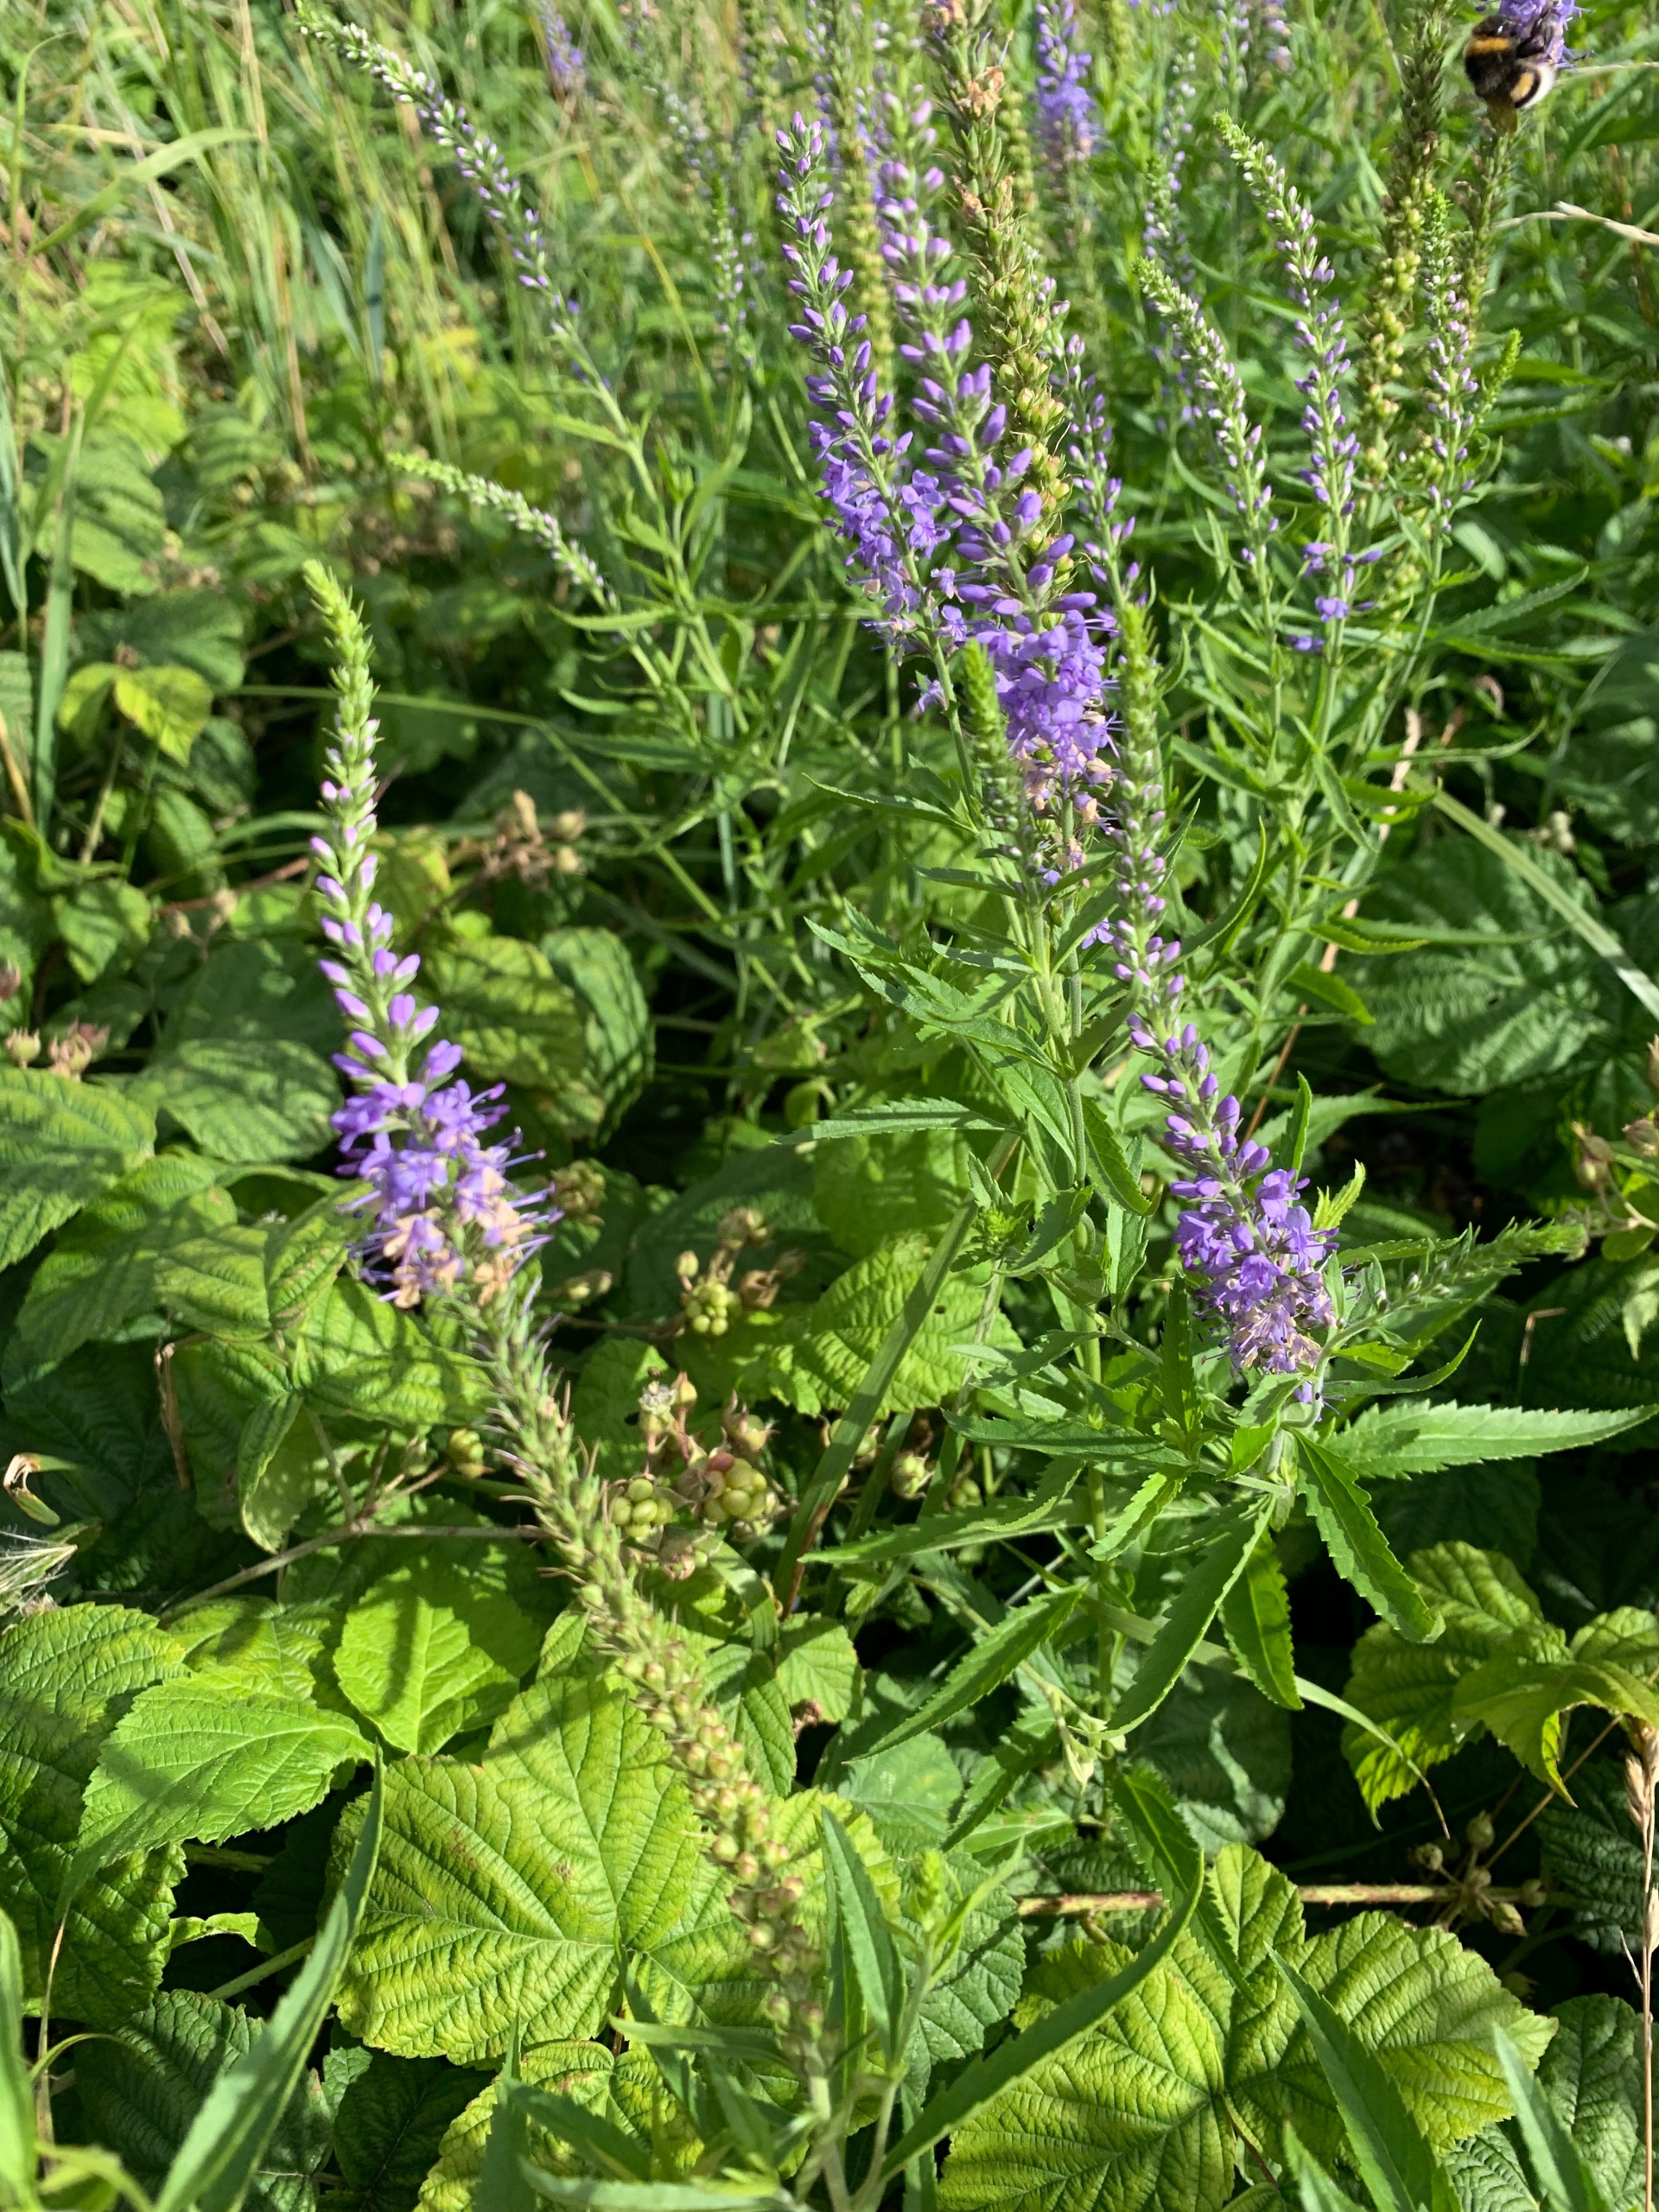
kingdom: Plantae
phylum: Tracheophyta
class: Magnoliopsida
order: Lamiales
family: Plantaginaceae
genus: Veronica
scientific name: Veronica longifolia
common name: Langbladet ærenpris
